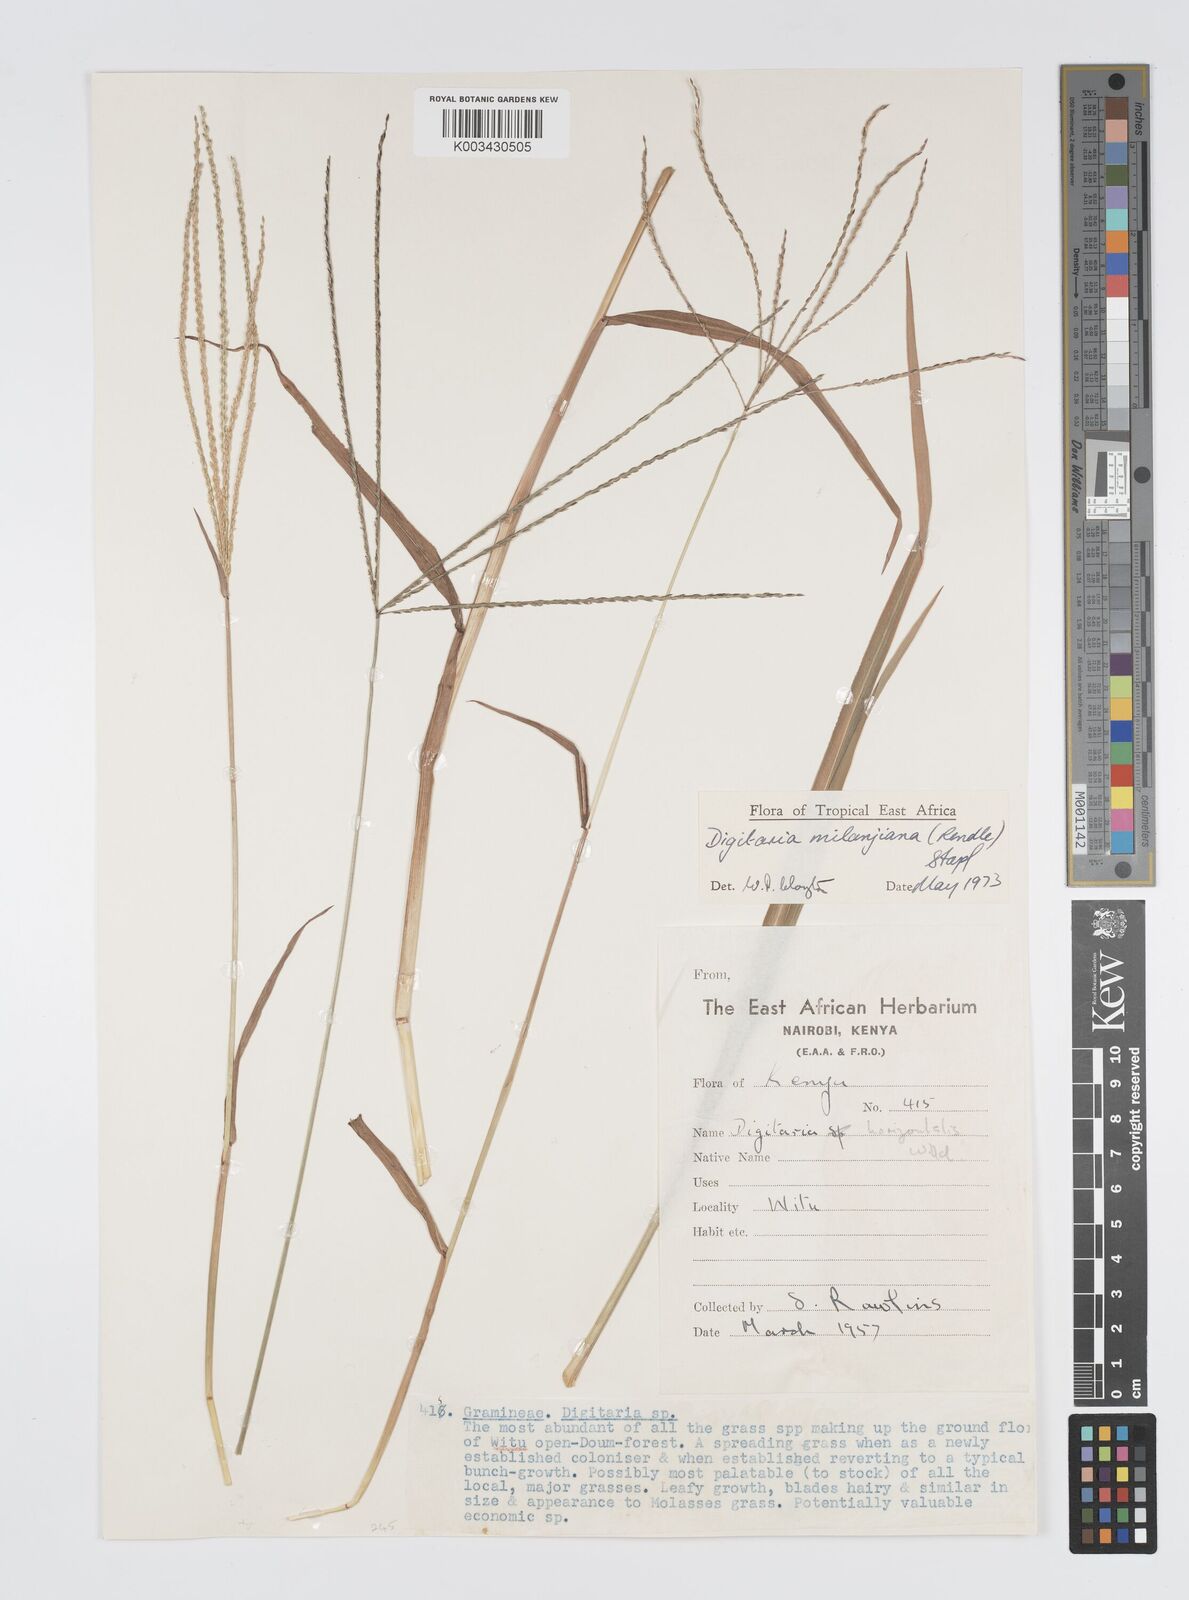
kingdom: Plantae
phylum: Tracheophyta
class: Liliopsida
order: Poales
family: Poaceae
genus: Digitaria
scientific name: Digitaria milanjiana
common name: Madagascar crabgrass
